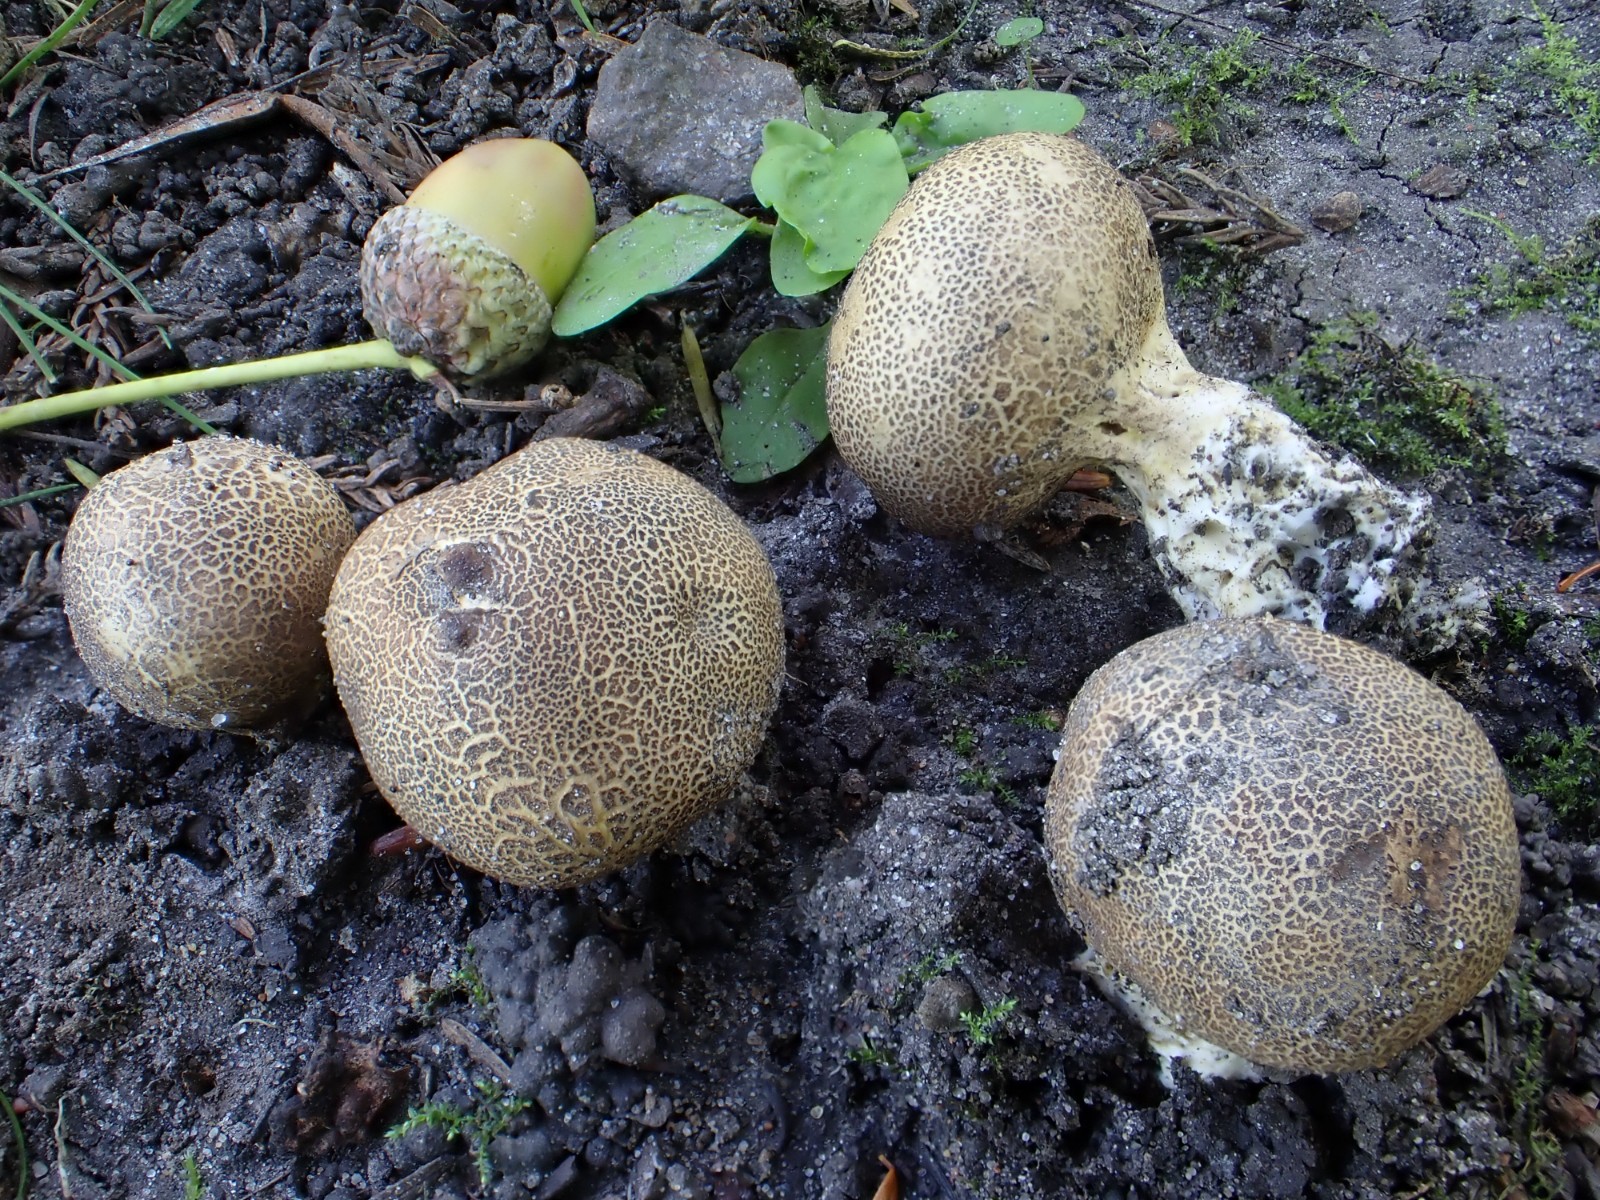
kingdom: Fungi
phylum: Basidiomycota
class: Agaricomycetes
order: Boletales
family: Sclerodermataceae
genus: Scleroderma
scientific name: Scleroderma verrucosum
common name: stilket bruskbold
